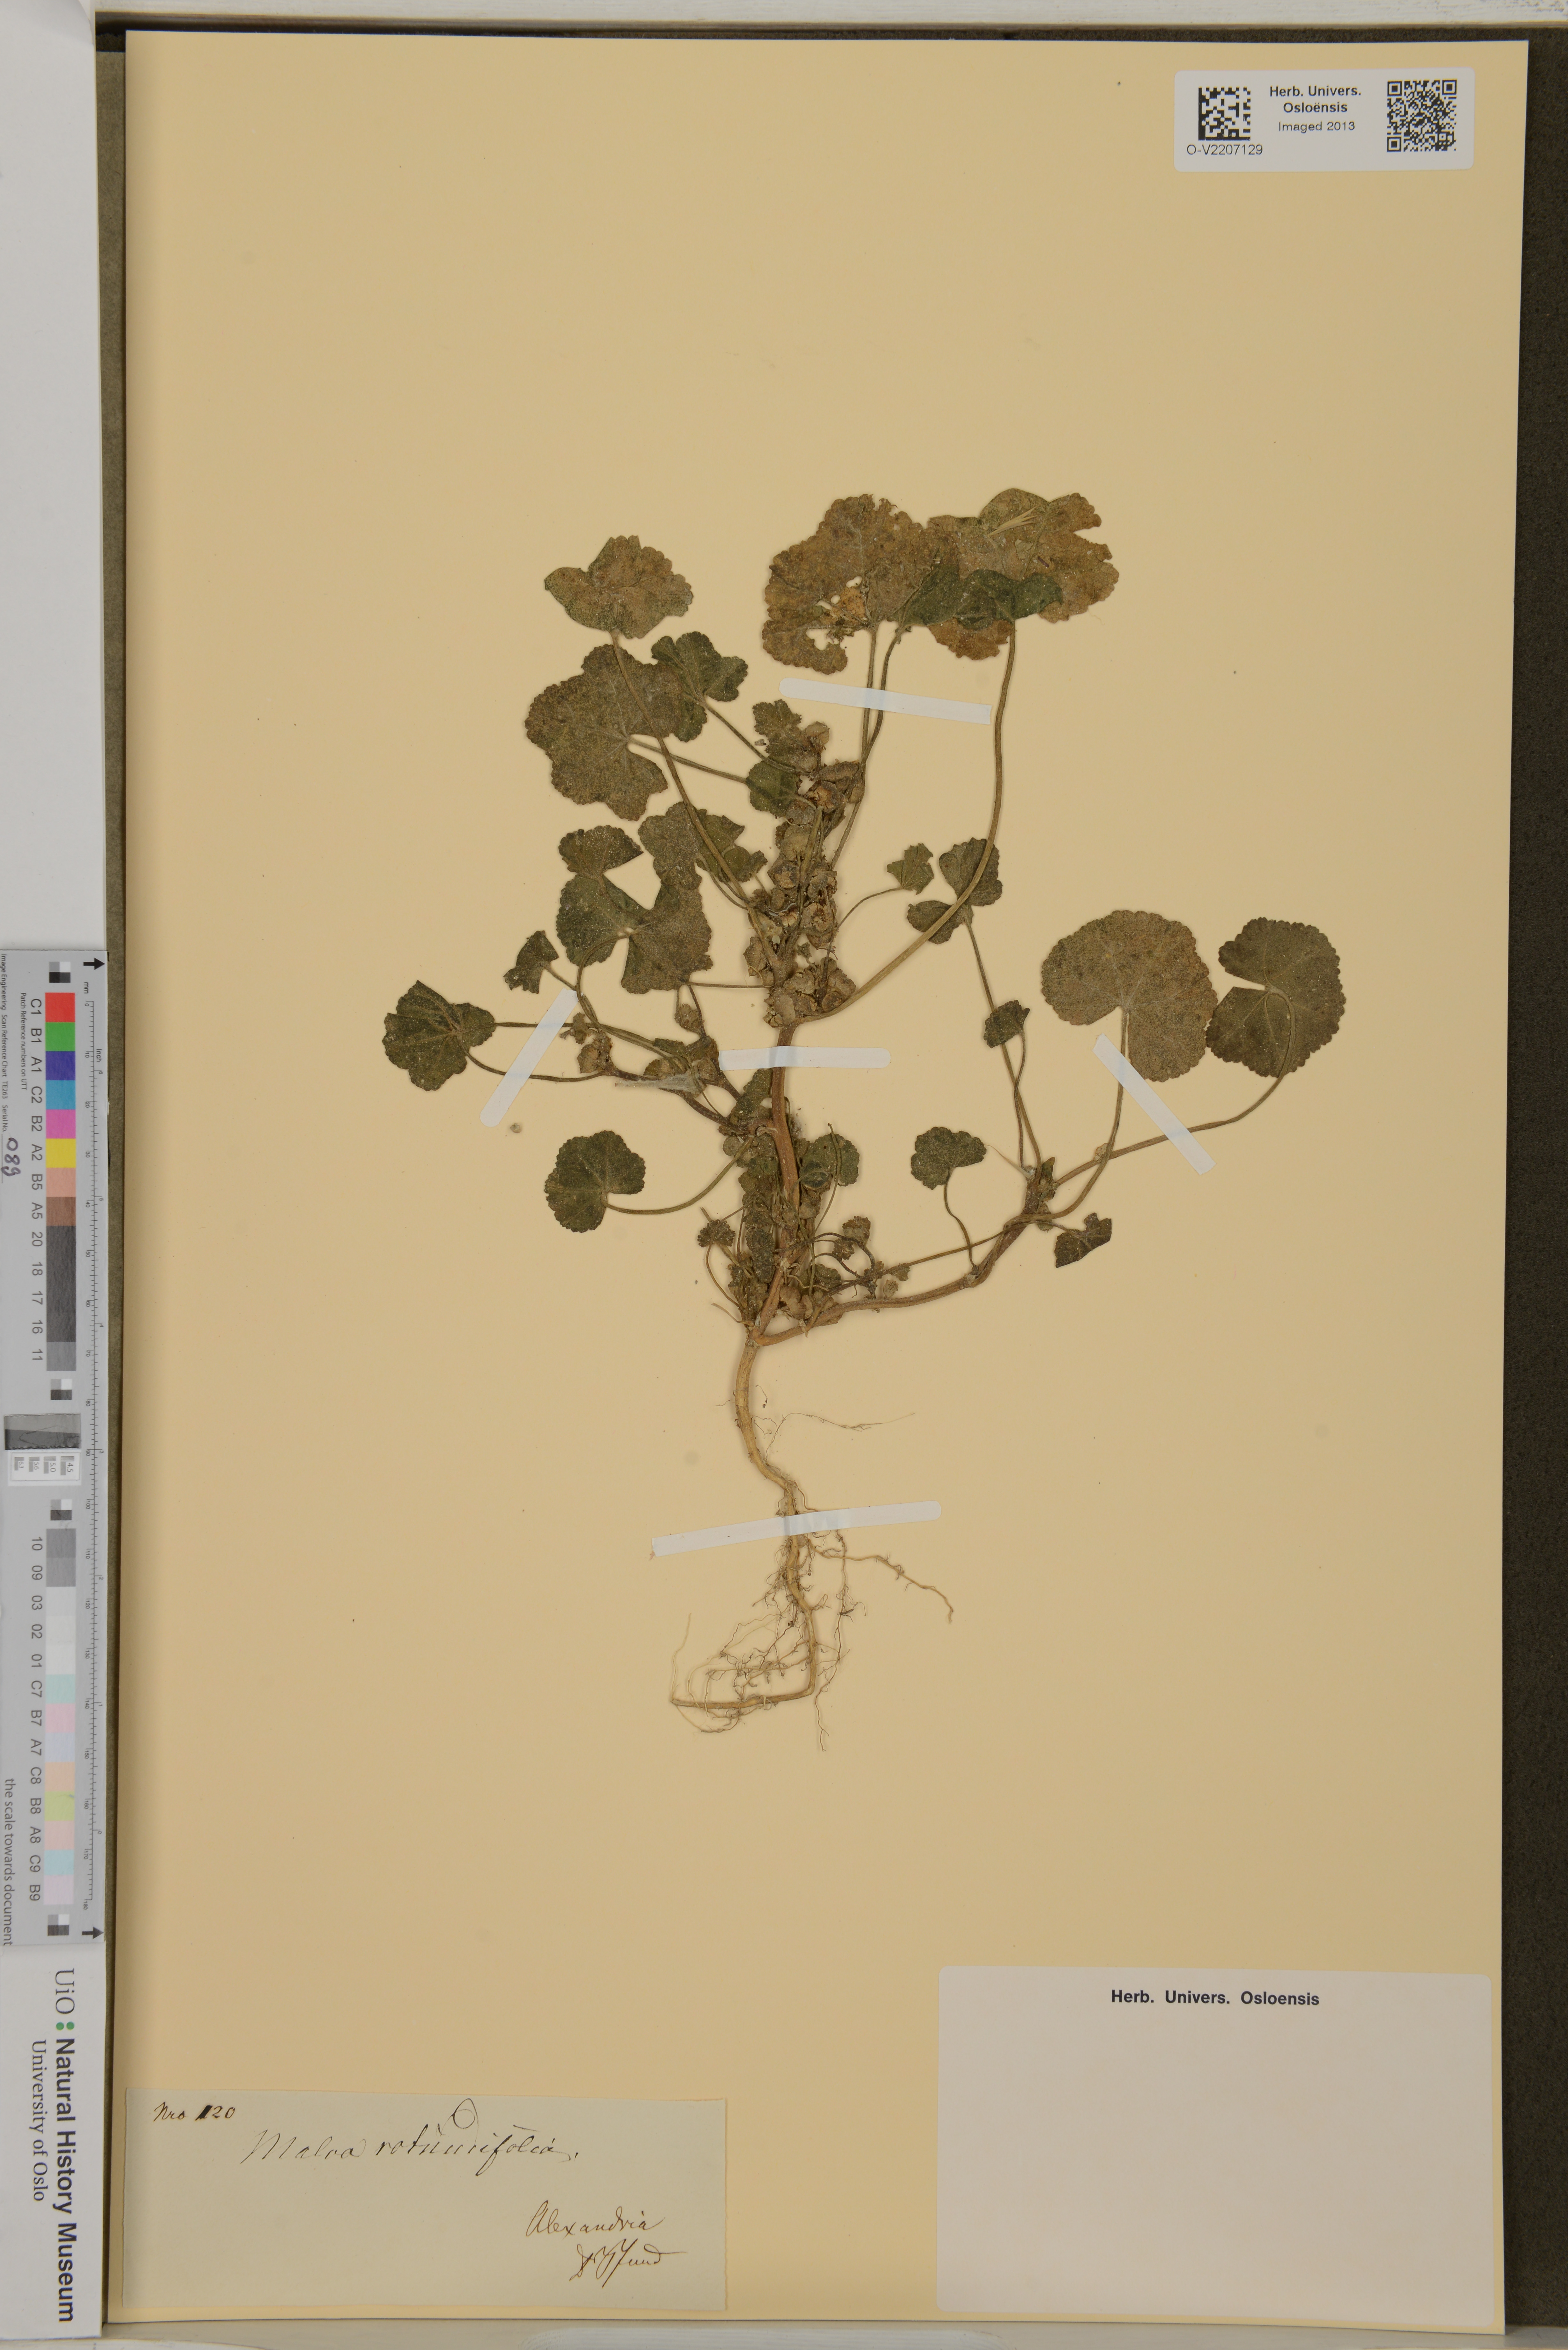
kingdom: Plantae
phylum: Tracheophyta
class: Magnoliopsida
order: Malvales
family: Malvaceae
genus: Malva
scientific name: Malva
